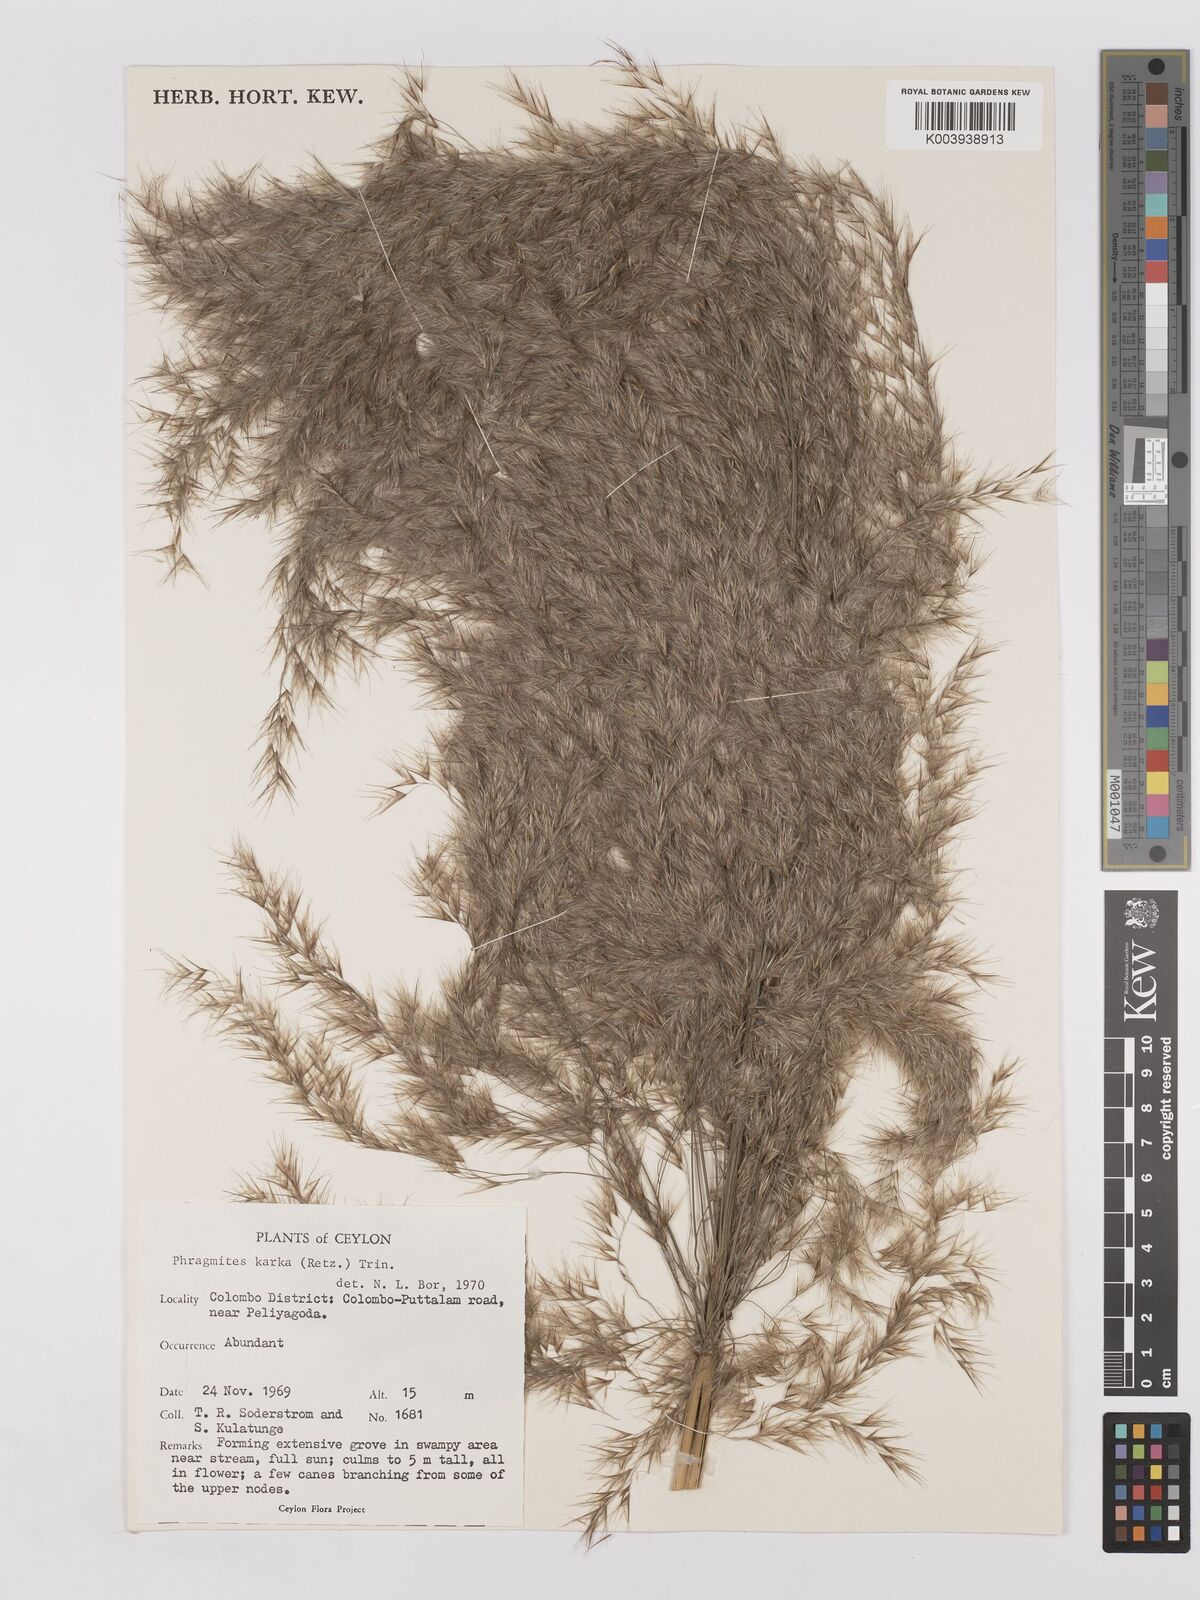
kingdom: Plantae
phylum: Tracheophyta
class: Liliopsida
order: Poales
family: Poaceae
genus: Phragmites
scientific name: Phragmites karka
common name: Tropical reed
